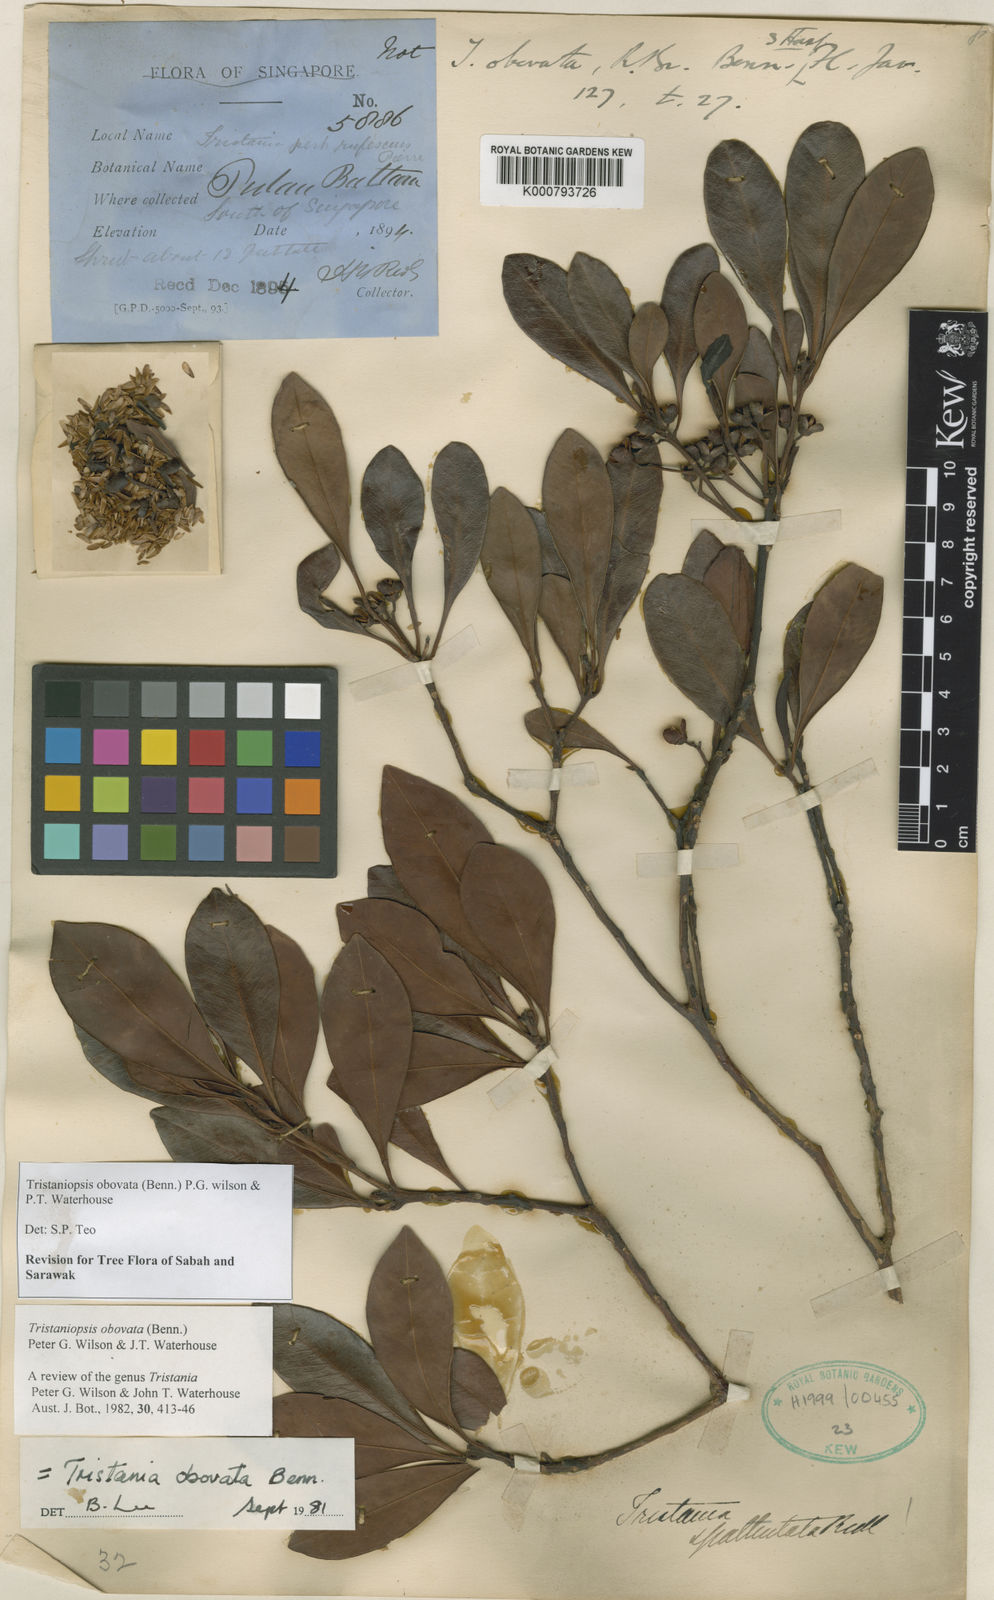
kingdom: Plantae
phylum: Tracheophyta
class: Magnoliopsida
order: Myrtales
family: Myrtaceae
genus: Tristaniopsis
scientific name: Tristaniopsis obovata
